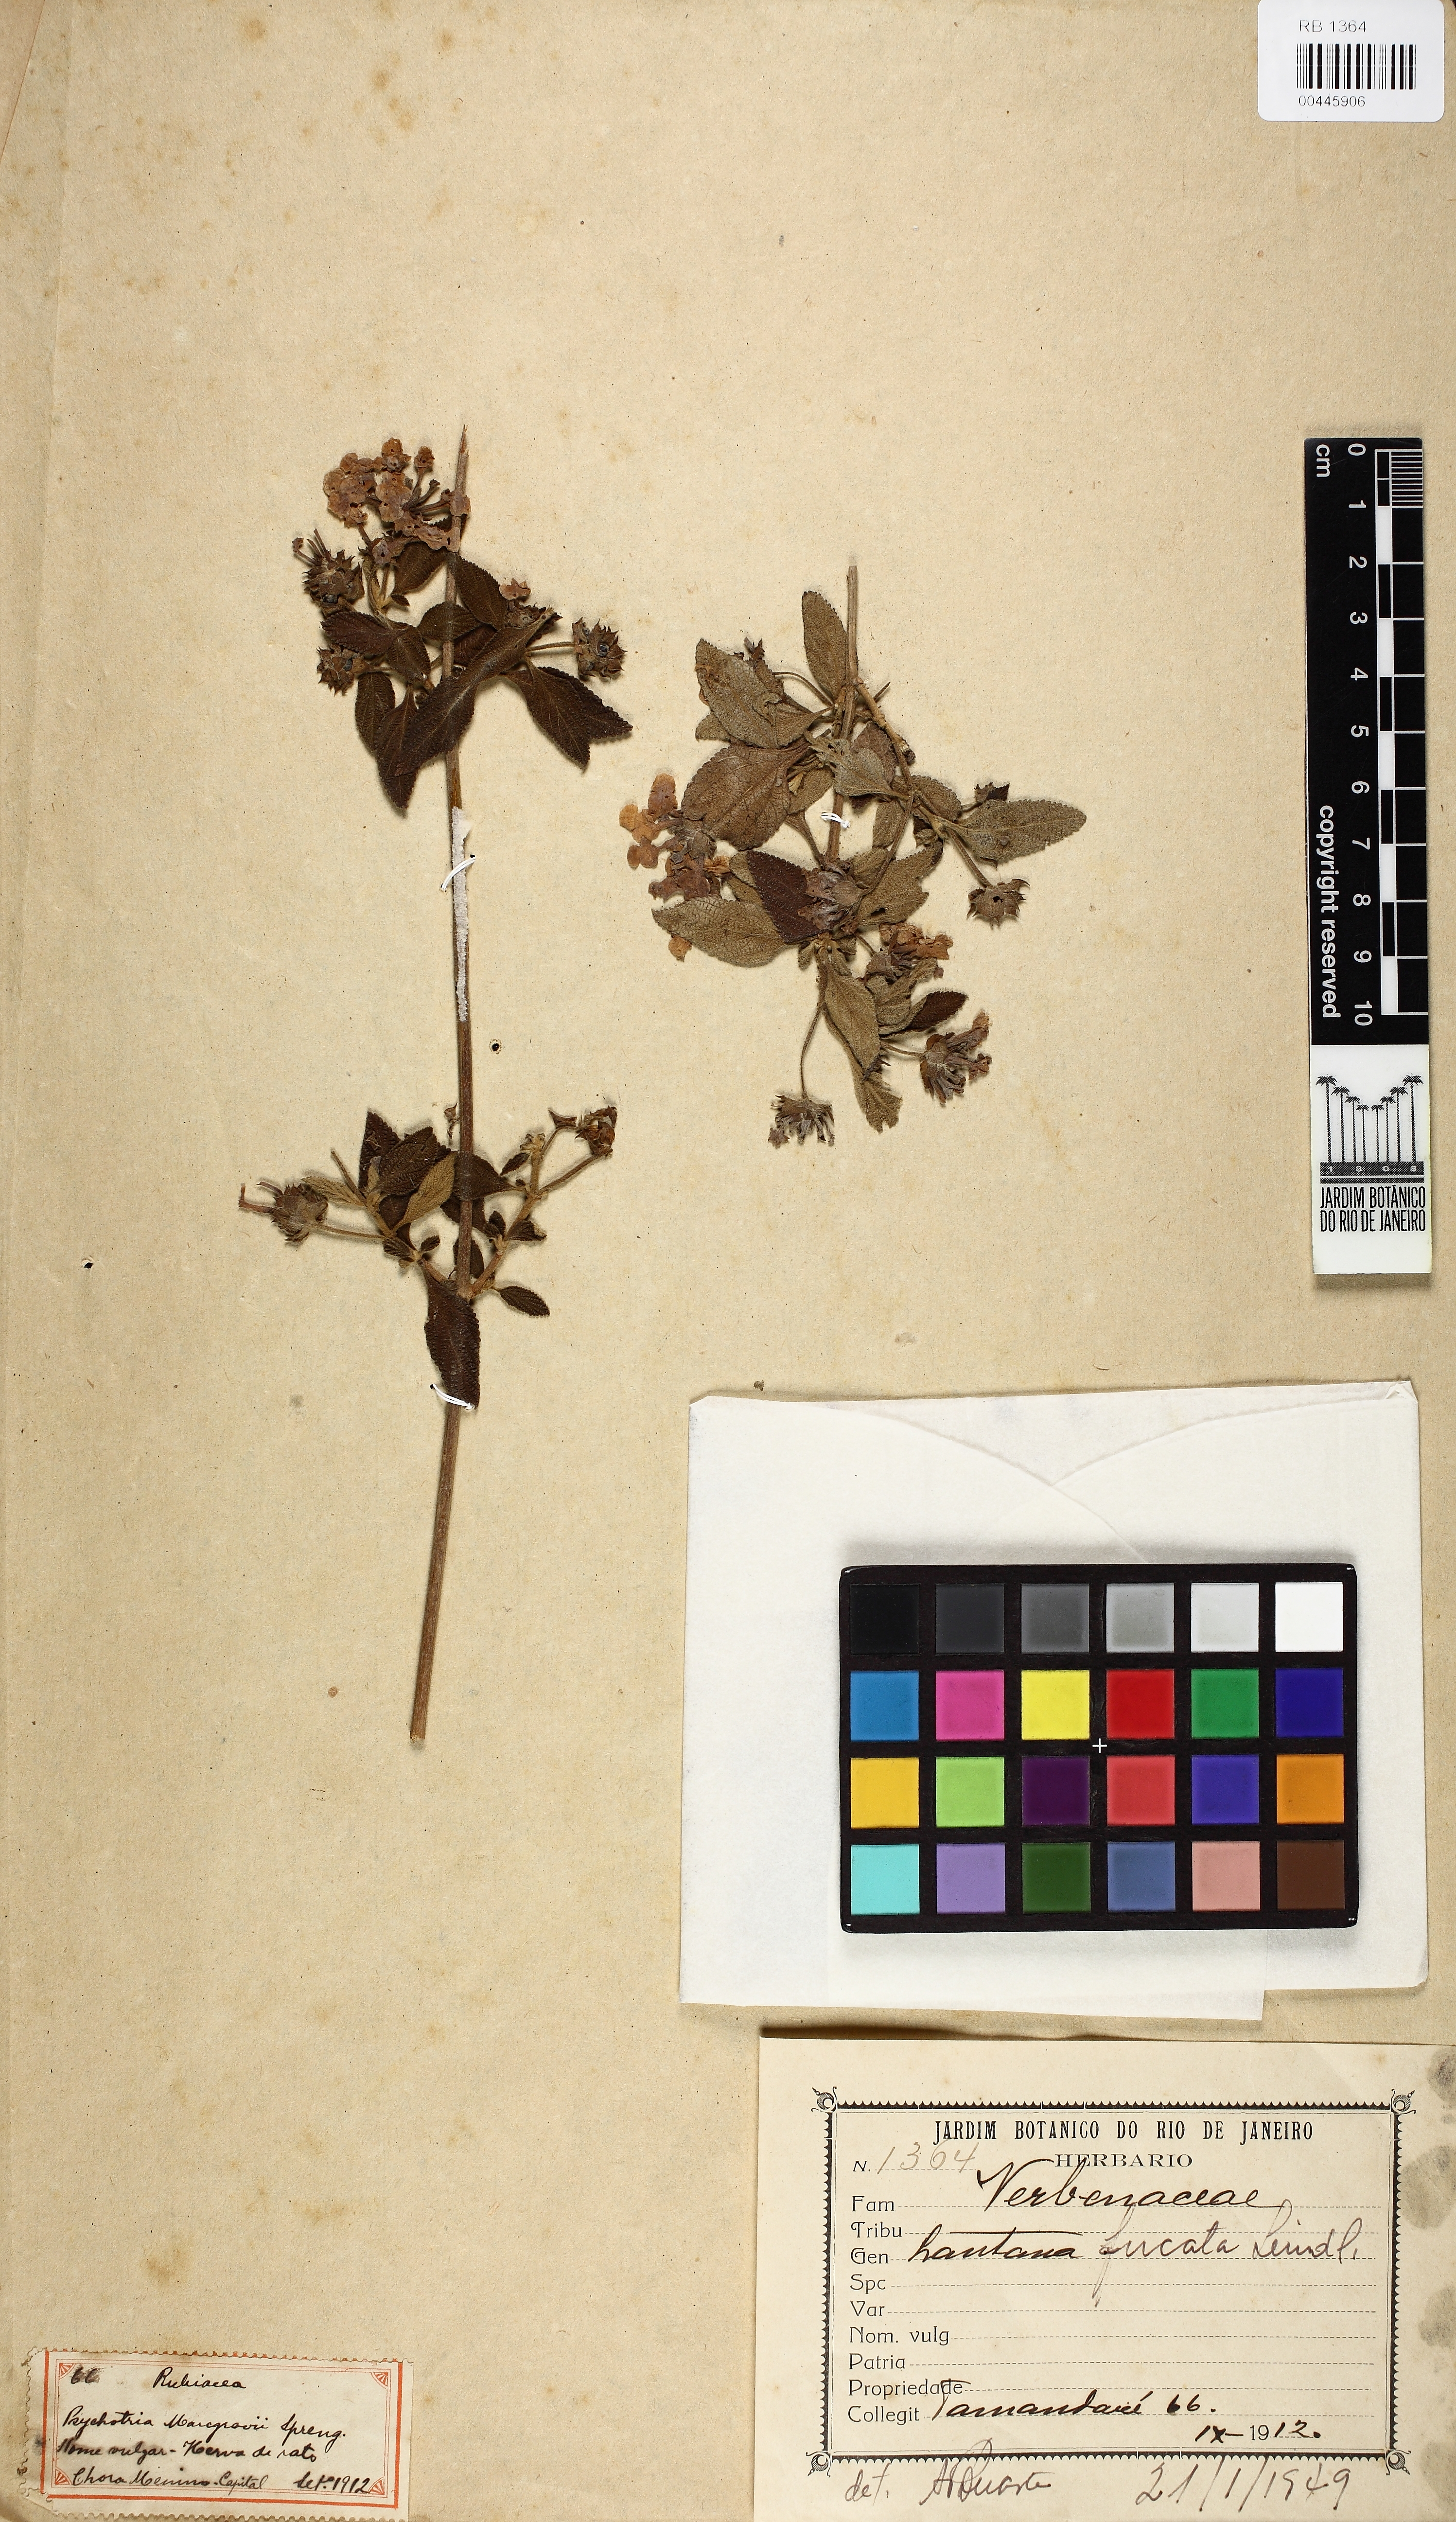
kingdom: Plantae
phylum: Tracheophyta
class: Magnoliopsida
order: Lamiales
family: Verbenaceae
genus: Lantana
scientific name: Lantana fucata
